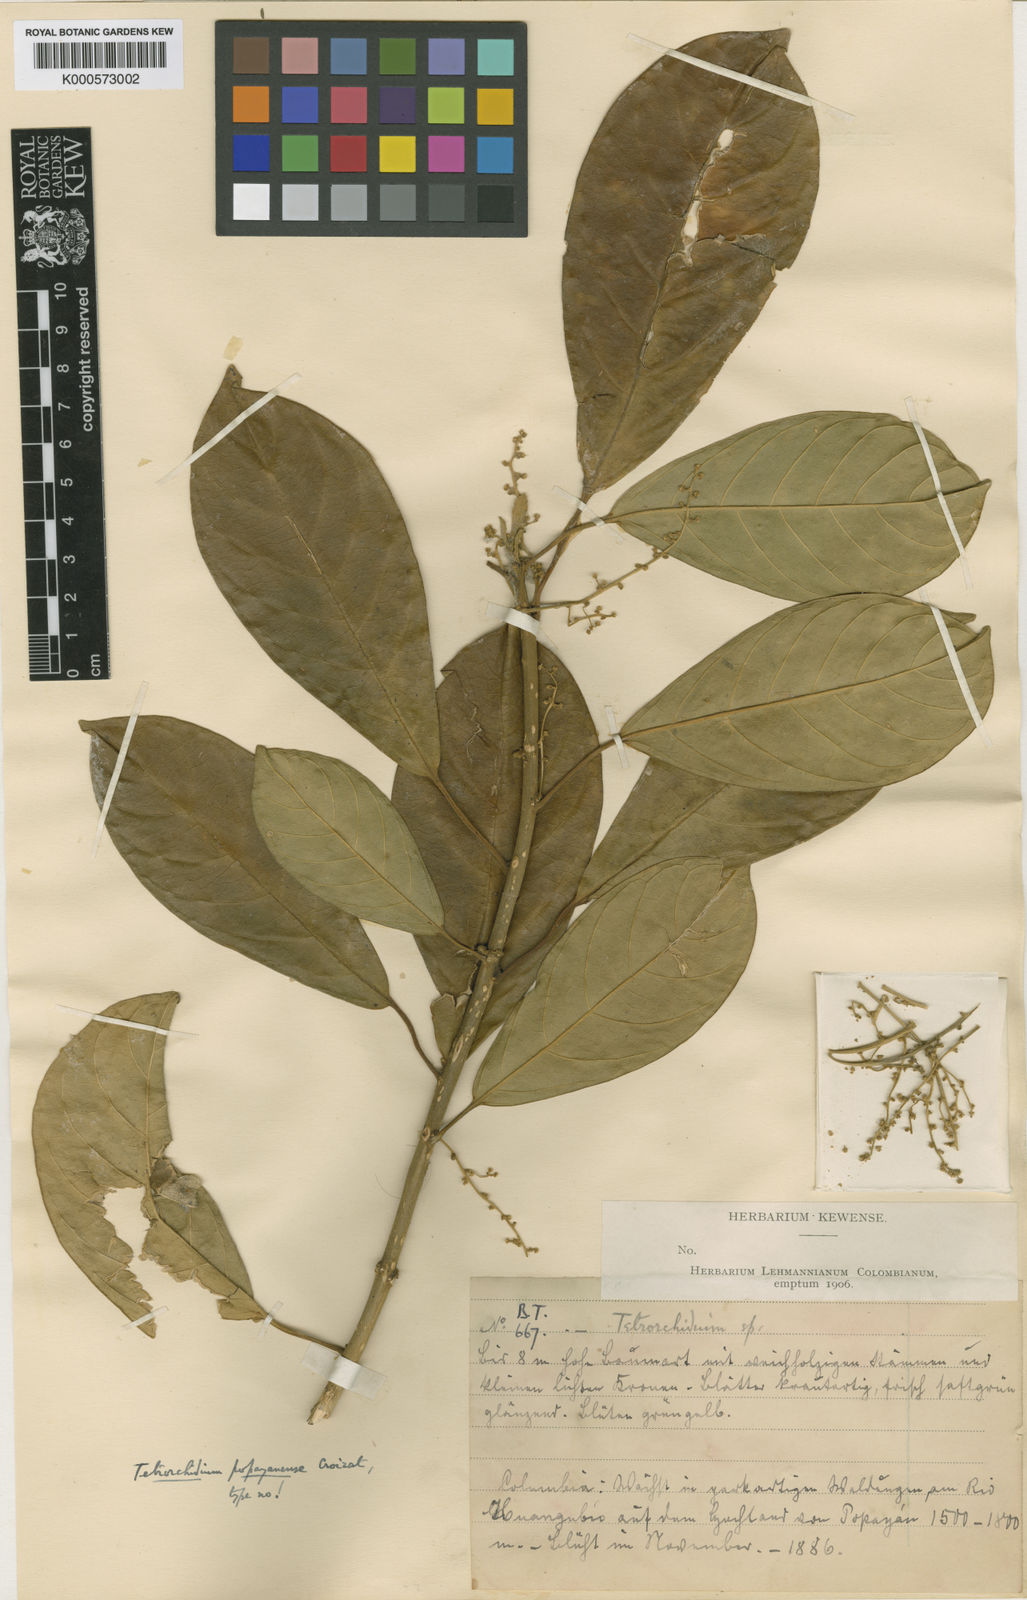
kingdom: Plantae
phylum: Tracheophyta
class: Magnoliopsida
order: Malpighiales
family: Euphorbiaceae
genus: Tetrorchidium
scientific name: Tetrorchidium popayanense
